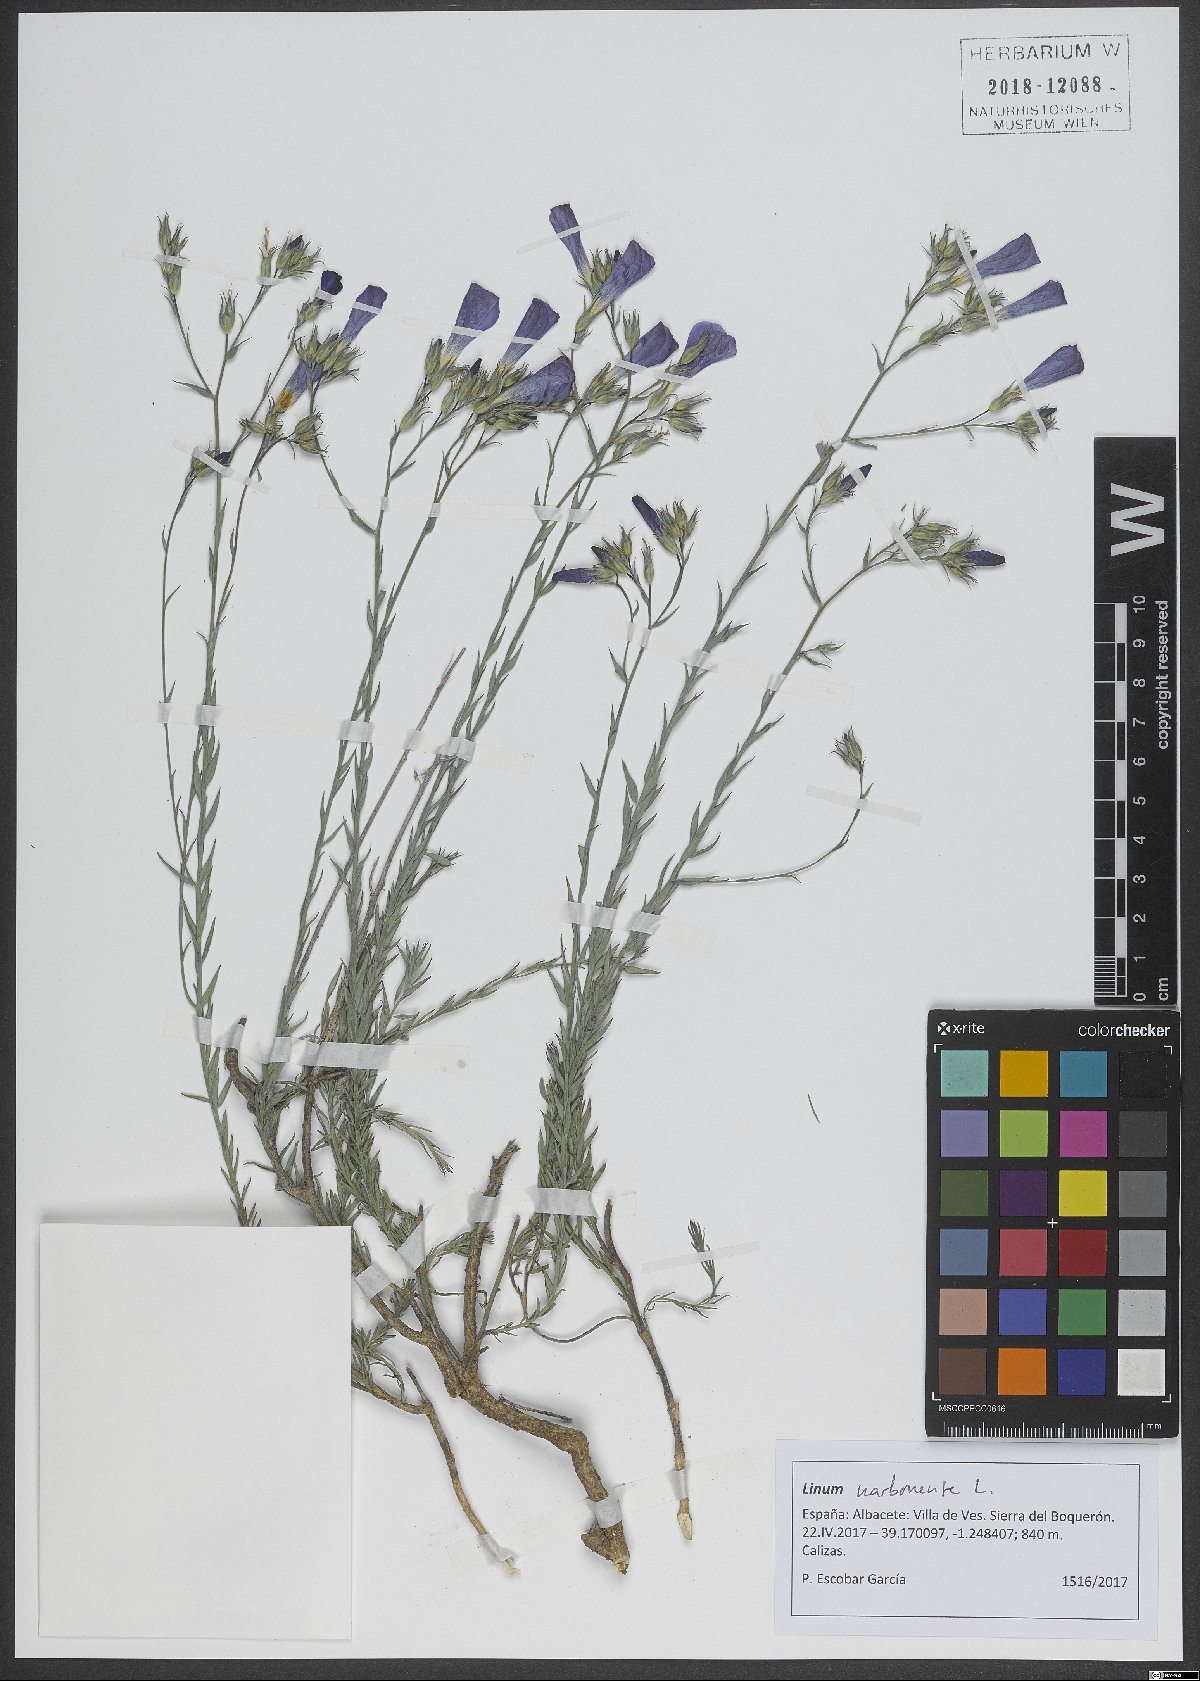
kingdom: Plantae
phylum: Tracheophyta
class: Magnoliopsida
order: Malpighiales
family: Linaceae
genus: Linum
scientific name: Linum narbonense
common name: Flax
